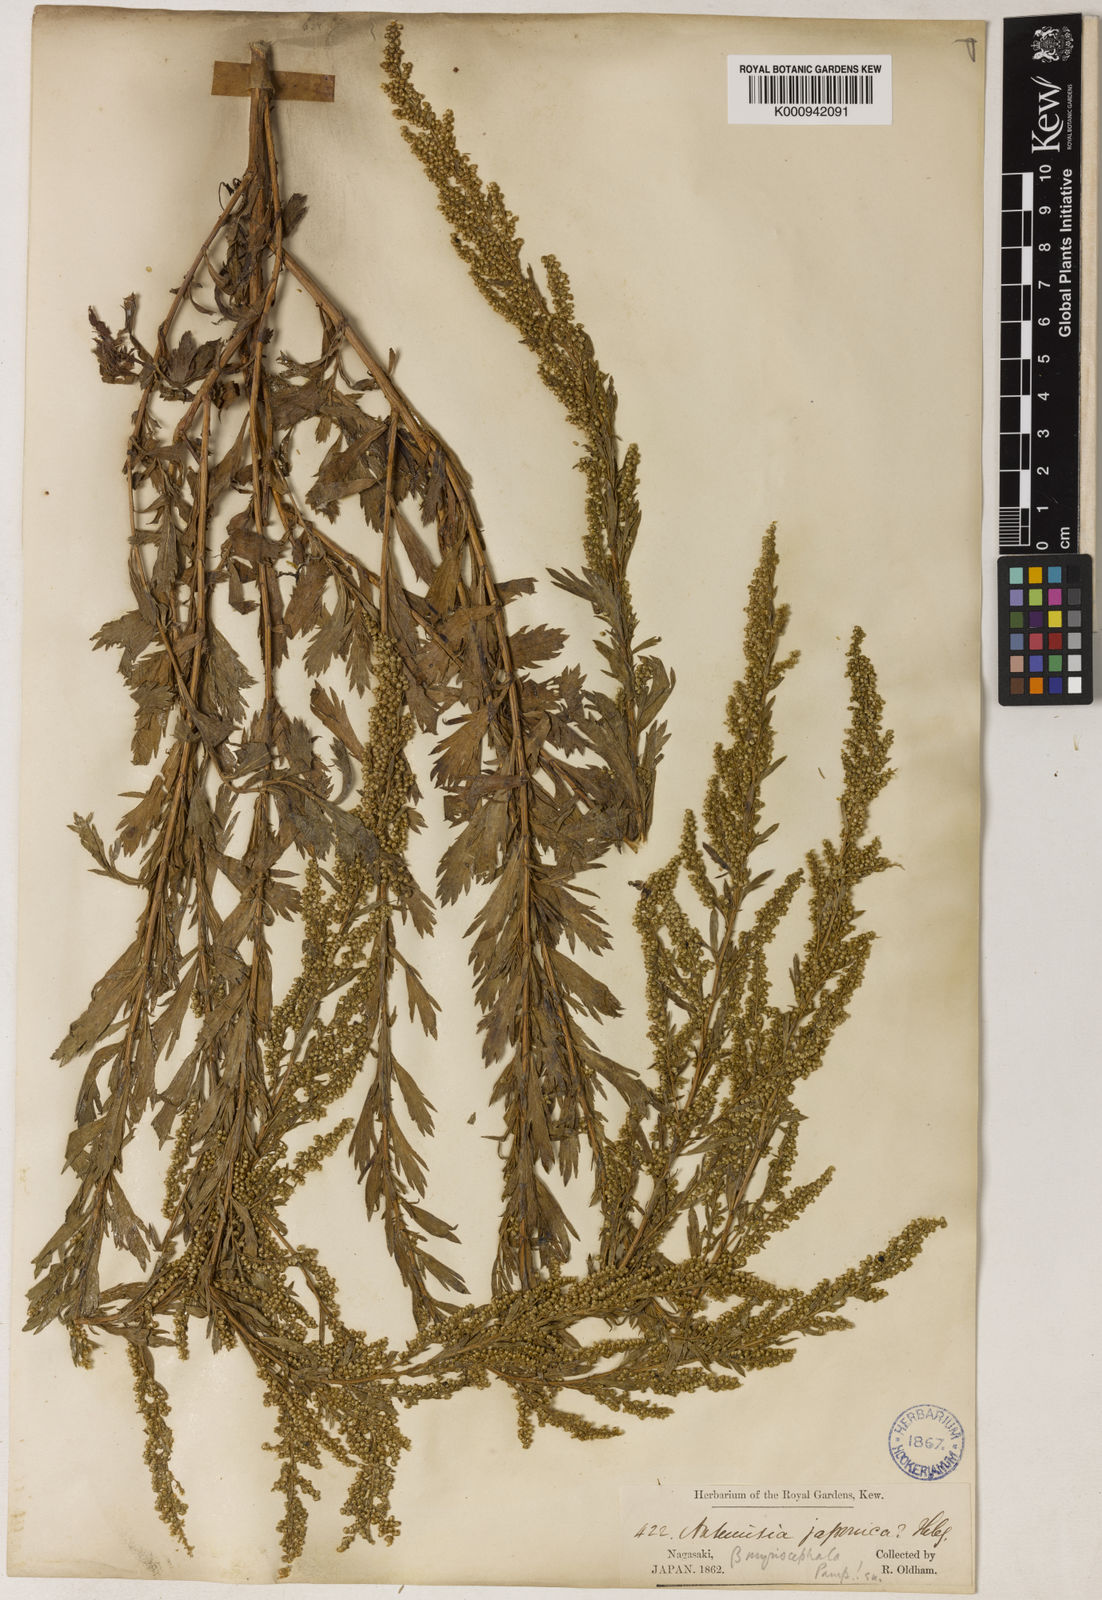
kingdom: Plantae
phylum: Tracheophyta
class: Magnoliopsida
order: Asterales
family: Asteraceae
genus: Artemisia
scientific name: Artemisia japonica
